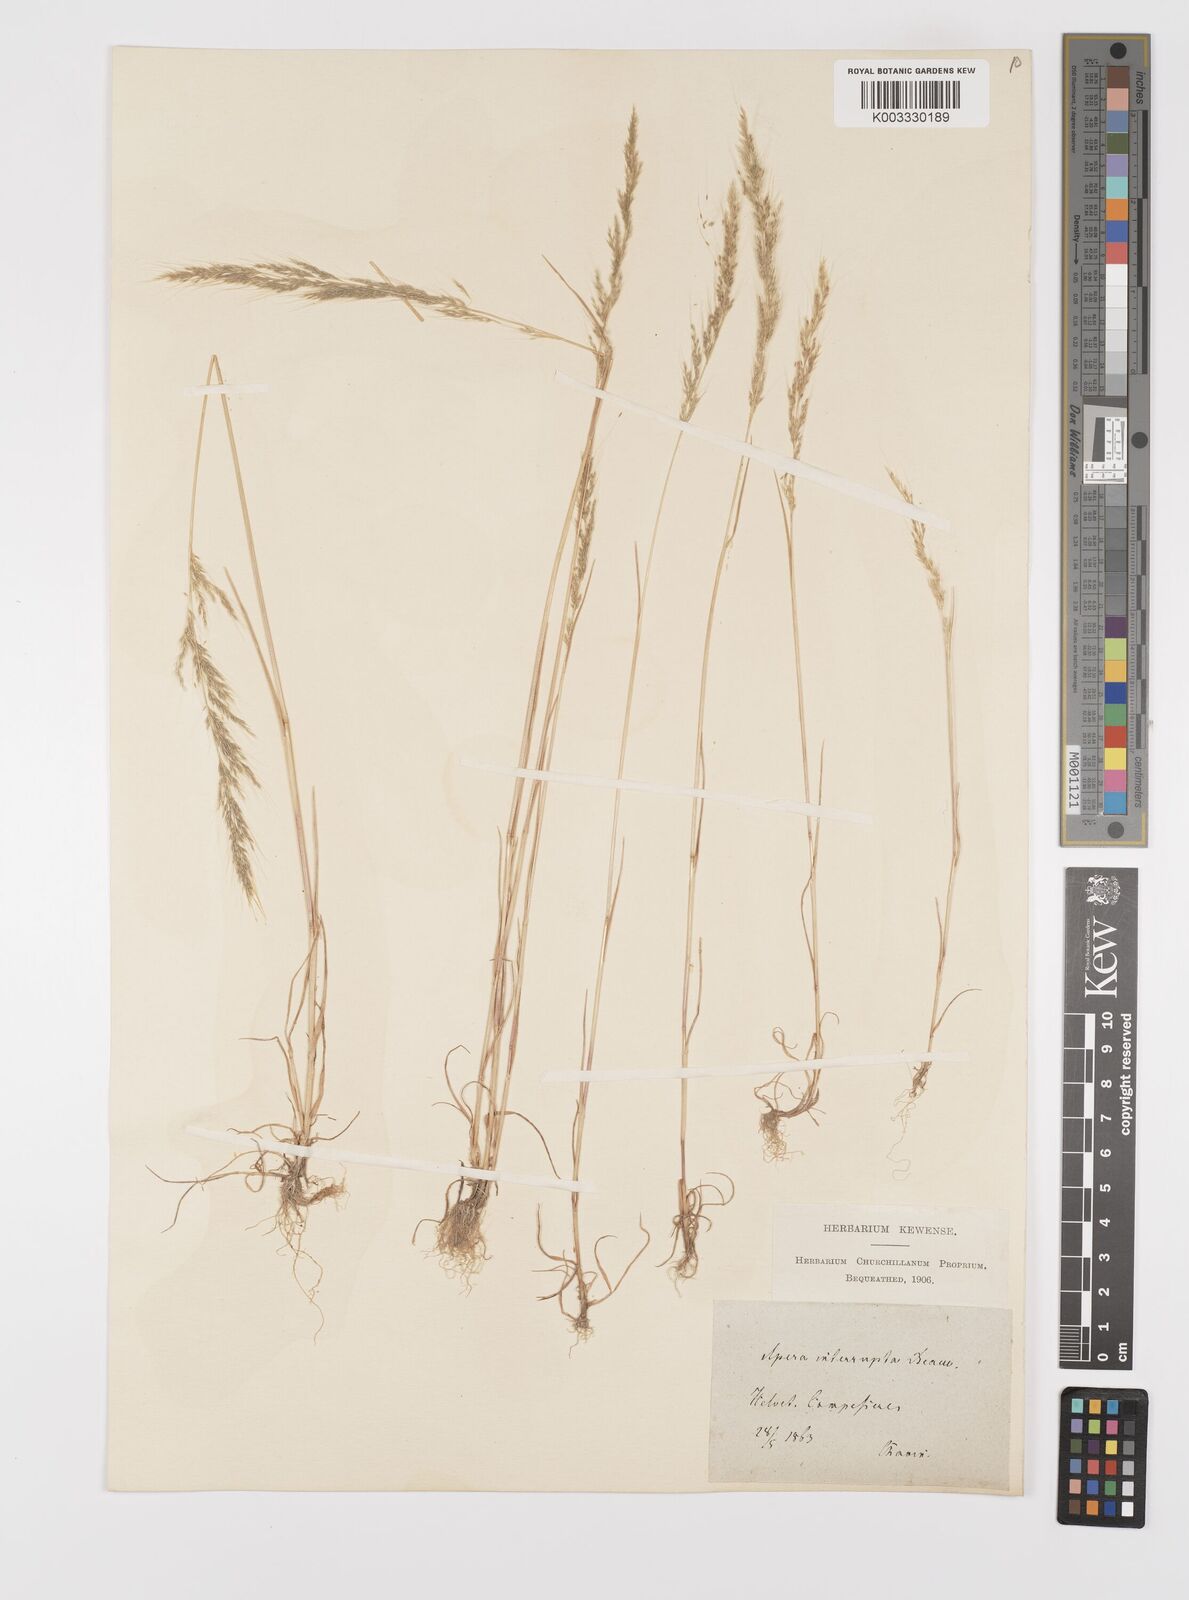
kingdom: Plantae
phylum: Tracheophyta
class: Liliopsida
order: Poales
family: Poaceae
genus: Apera
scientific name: Apera interrupta
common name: Dense silky-bent
